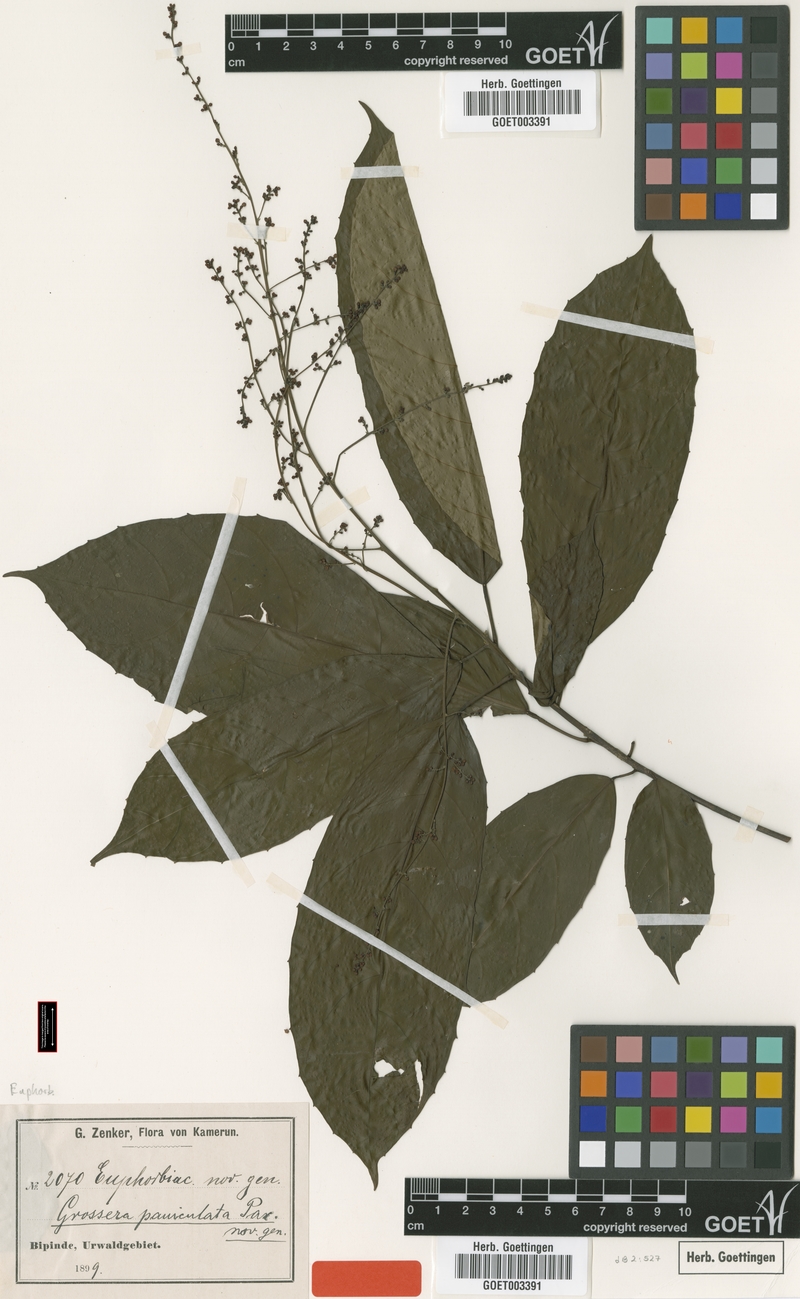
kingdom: Plantae
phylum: Tracheophyta
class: Magnoliopsida
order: Malpighiales
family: Euphorbiaceae
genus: Grossera
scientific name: Grossera paniculata
